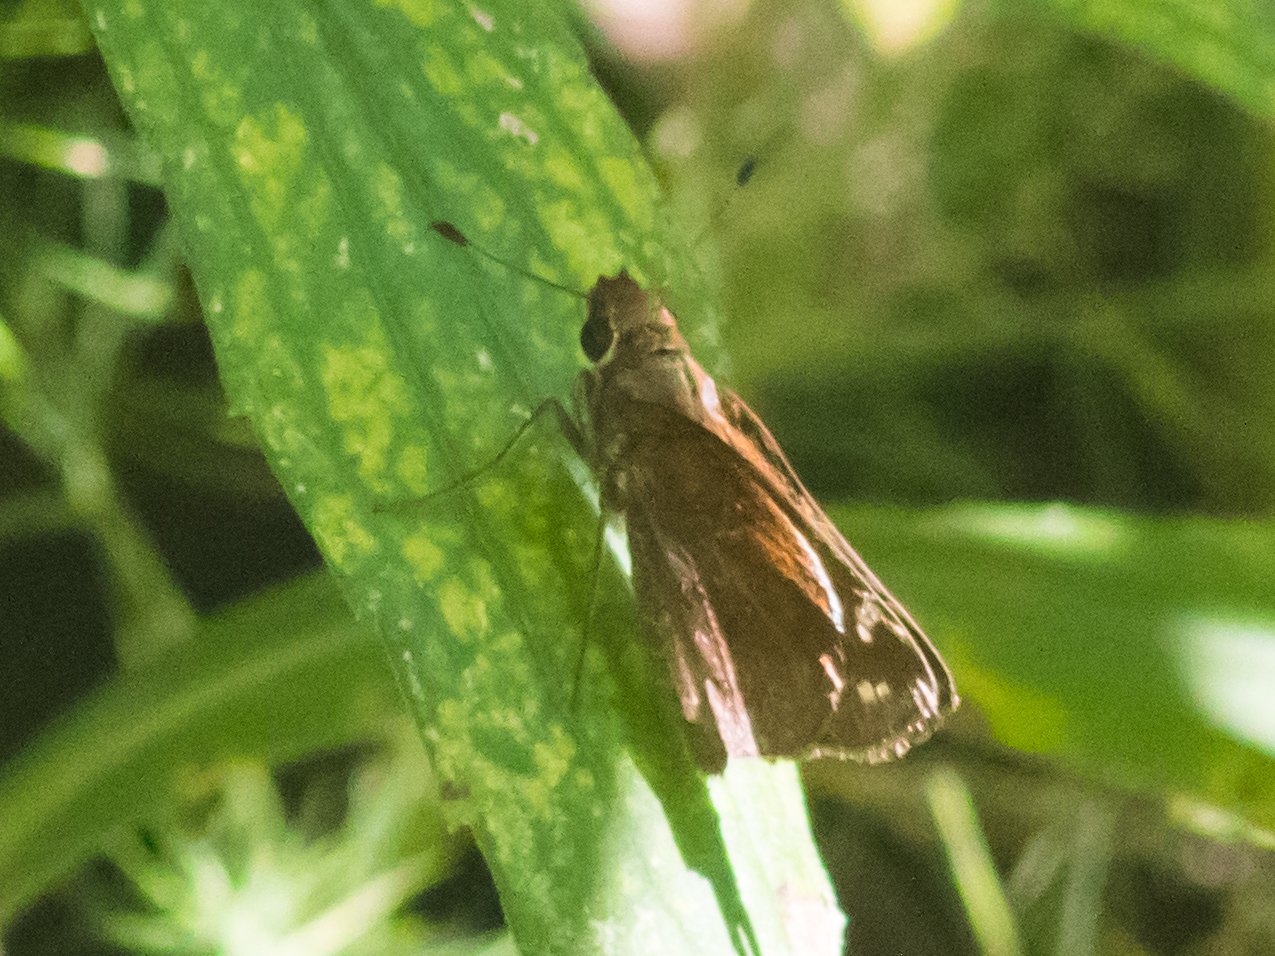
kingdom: Animalia
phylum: Arthropoda
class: Insecta
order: Lepidoptera
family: Hesperiidae
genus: Lon
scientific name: Lon zabulon
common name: Zabulon Skipper
